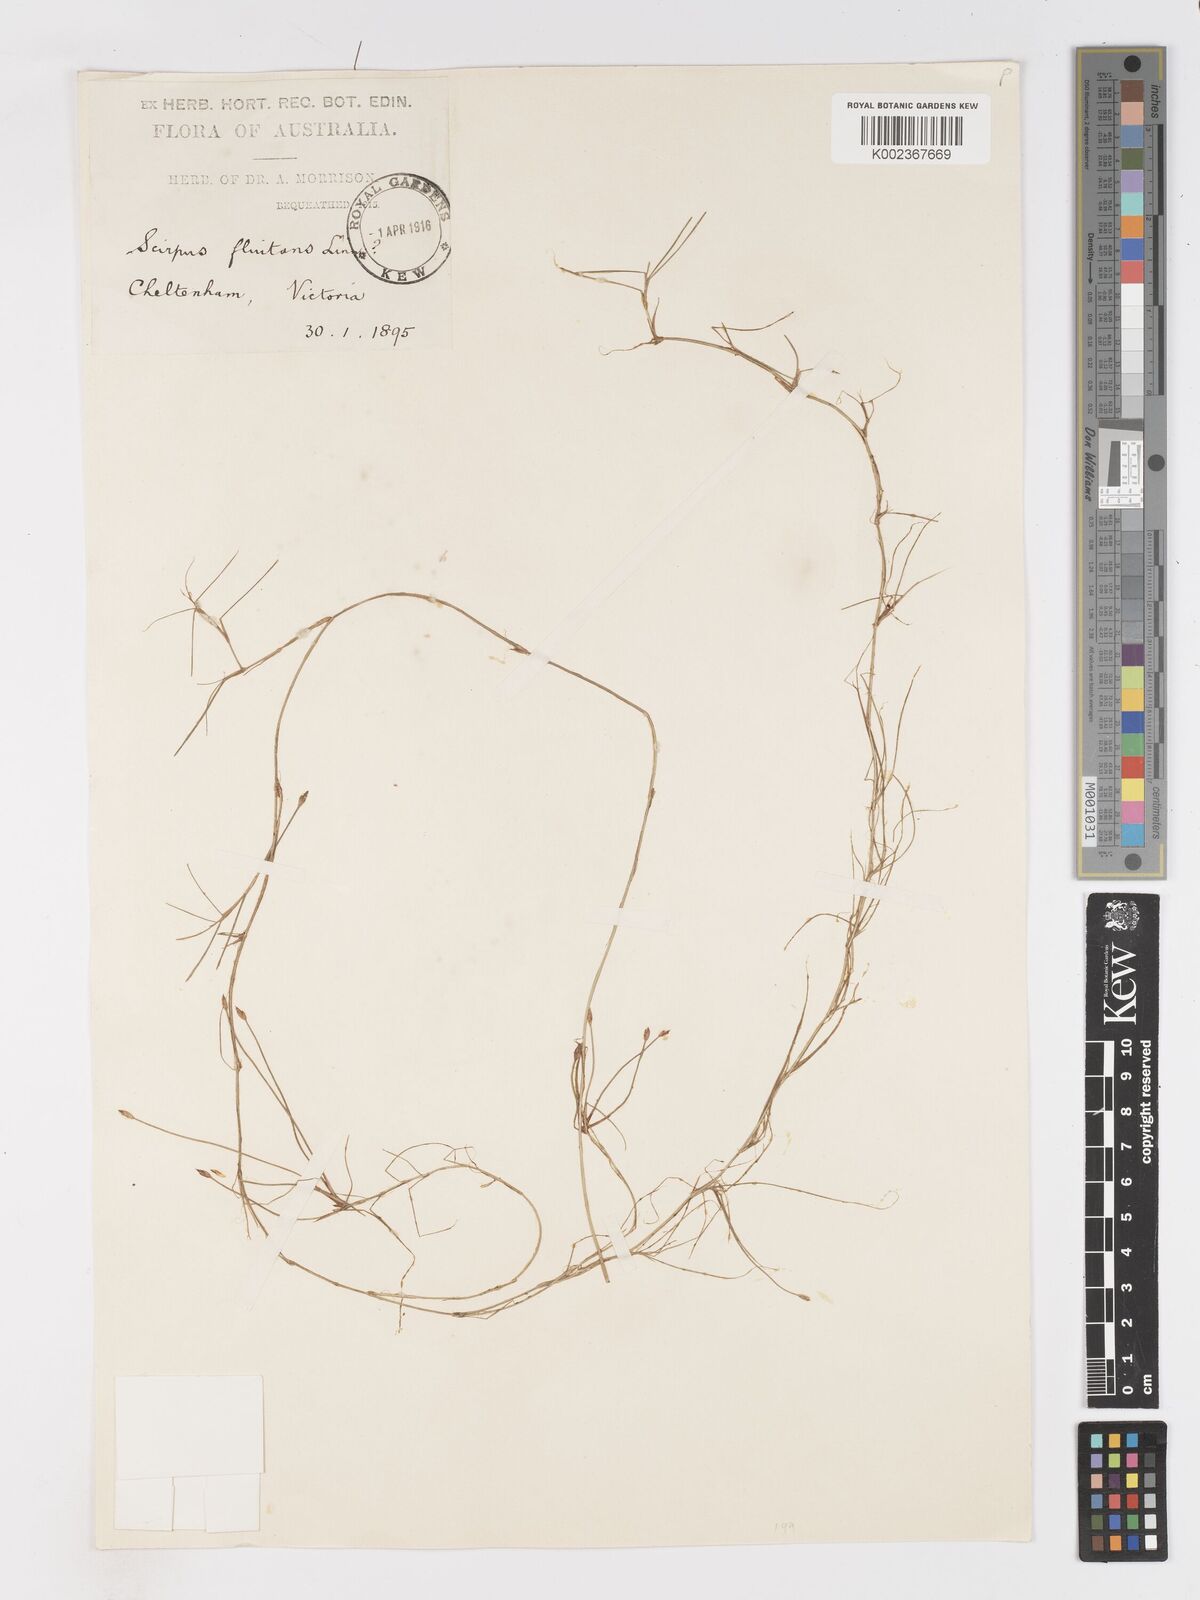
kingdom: Plantae
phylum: Tracheophyta
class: Liliopsida
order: Poales
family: Cyperaceae
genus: Isolepis
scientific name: Isolepis fluitans
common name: Floating club-rush
